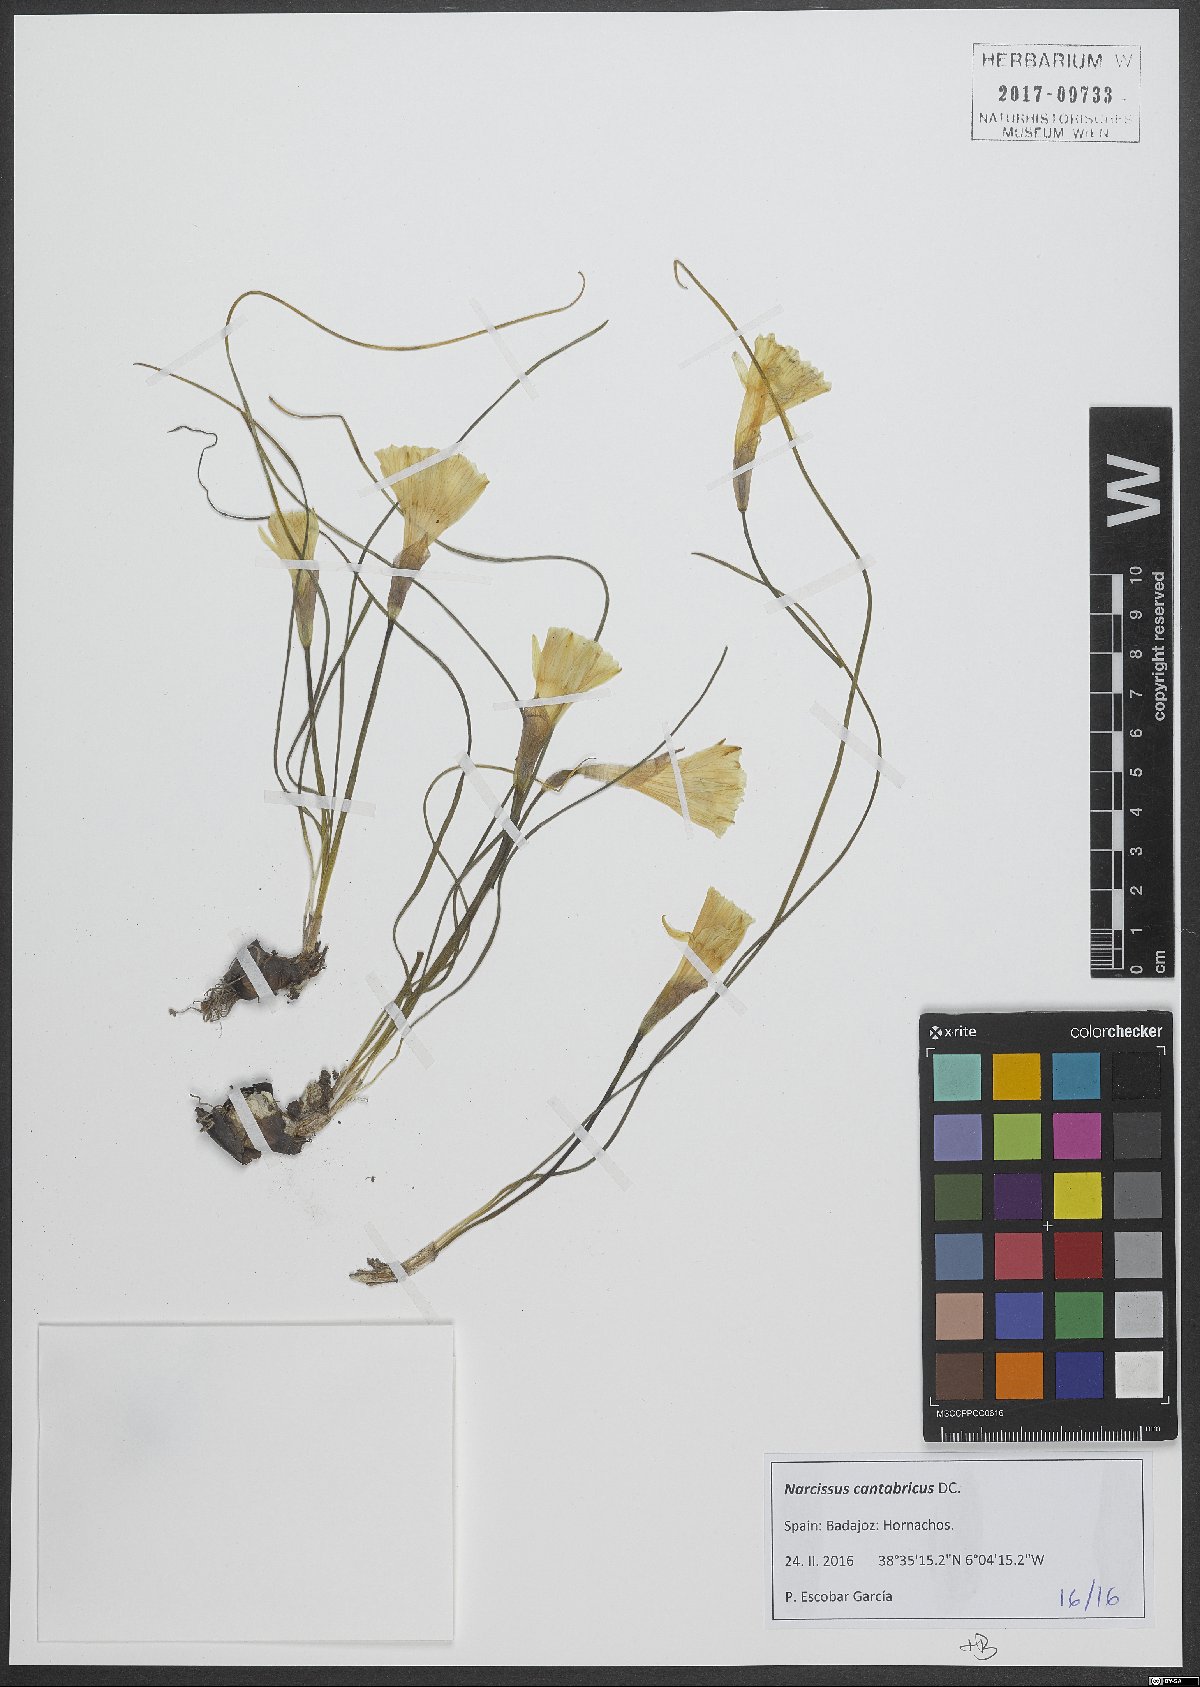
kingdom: Plantae
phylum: Tracheophyta
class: Liliopsida
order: Asparagales
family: Amaryllidaceae
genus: Narcissus
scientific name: Narcissus cantabricus
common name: White hoop petticoat daffodil
